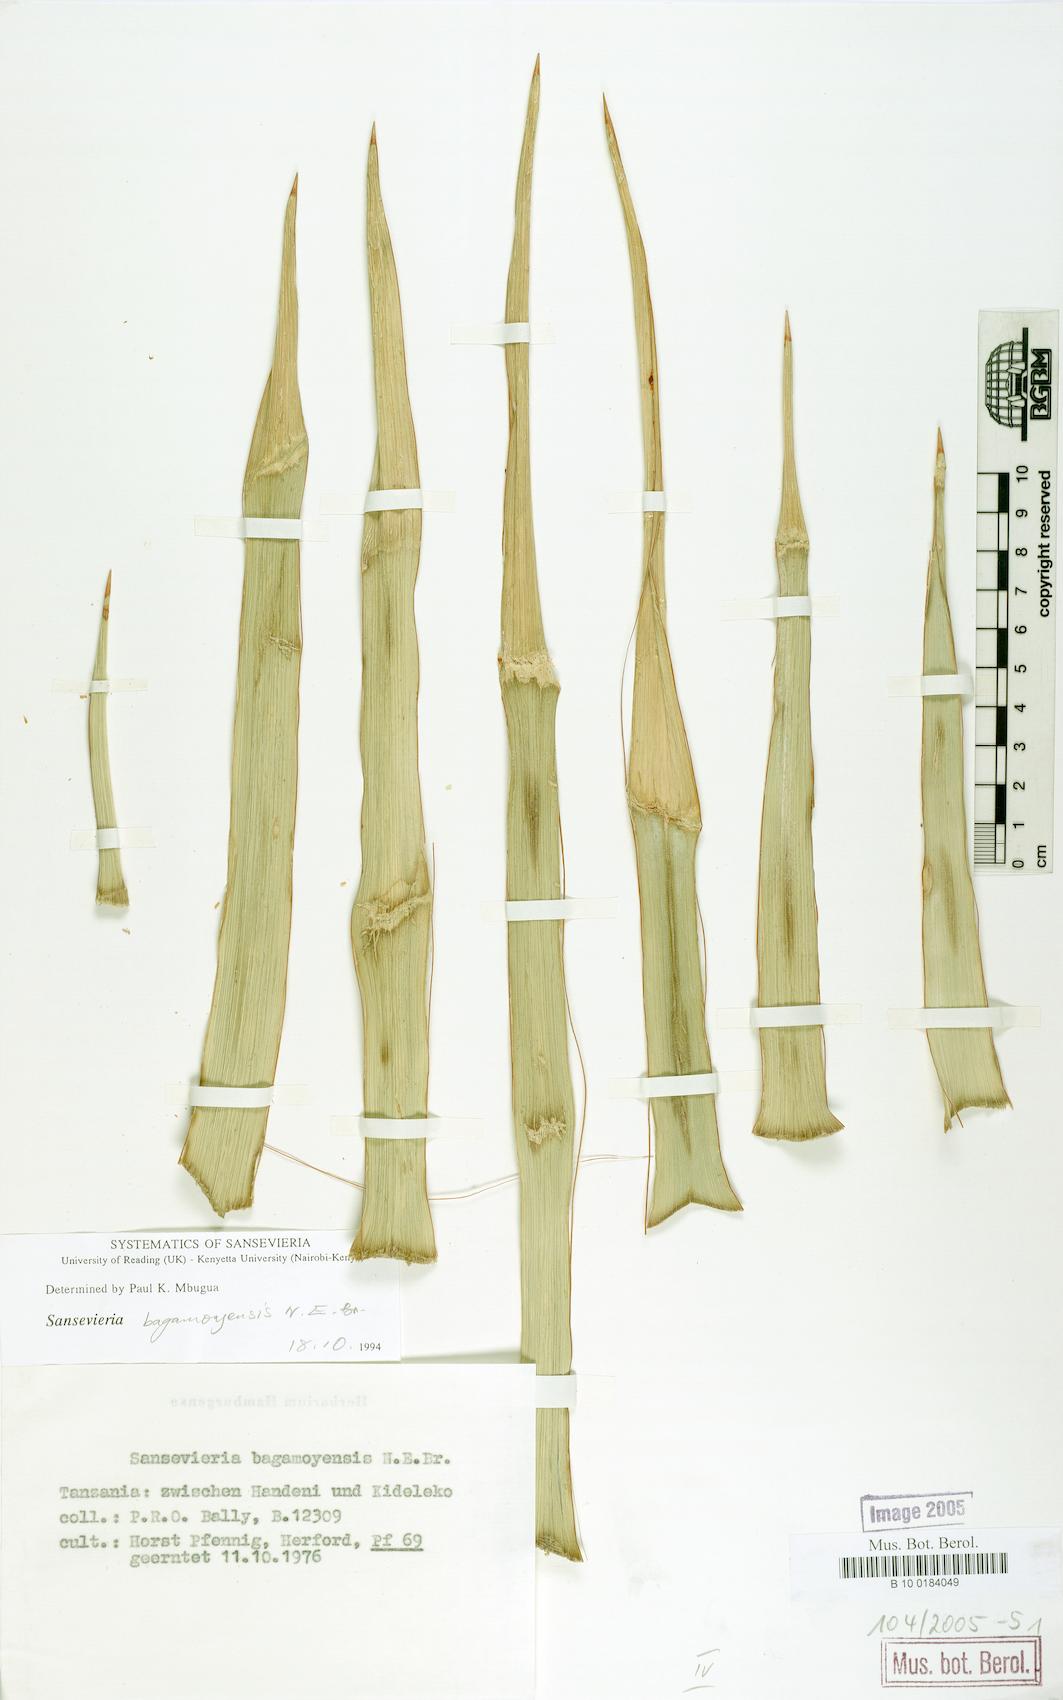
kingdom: Plantae
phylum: Tracheophyta
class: Liliopsida
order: Asparagales
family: Asparagaceae
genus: Dracaena
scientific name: Dracaena bagamoyensis
